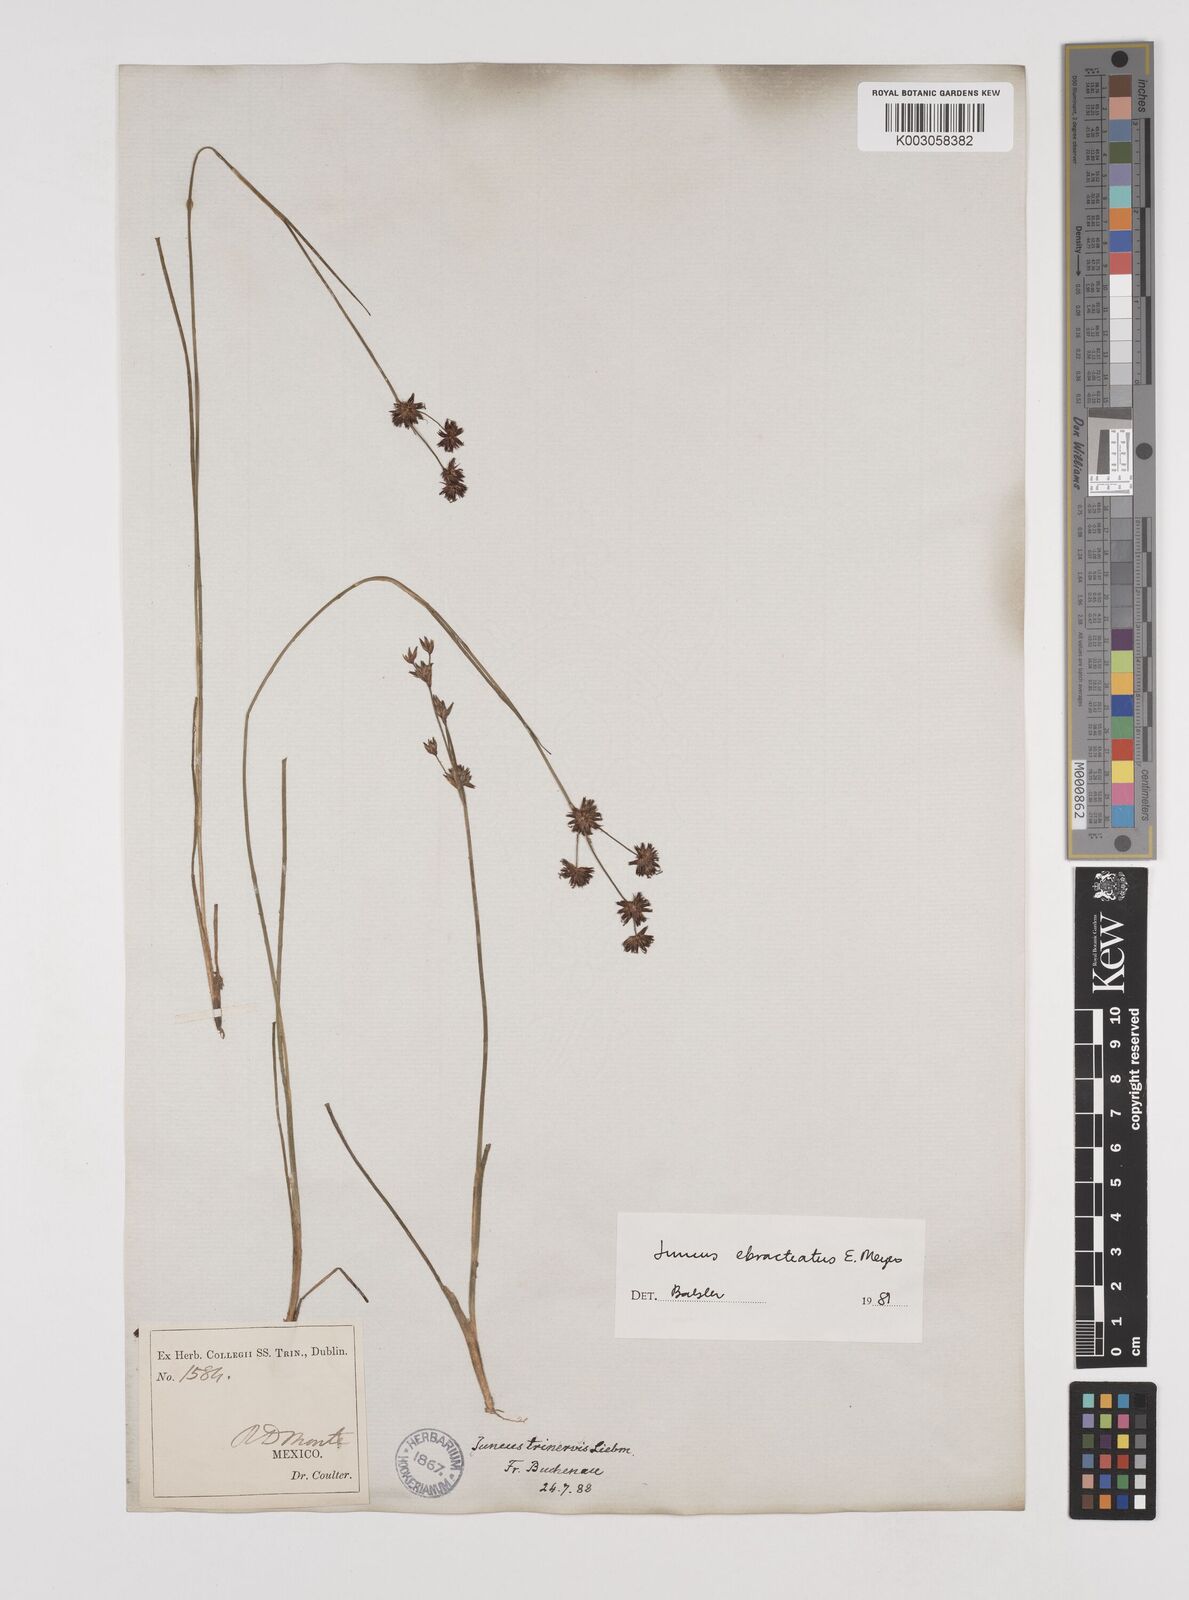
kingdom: Plantae
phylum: Tracheophyta
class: Liliopsida
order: Poales
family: Juncaceae
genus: Juncus
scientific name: Juncus ebracteatus
